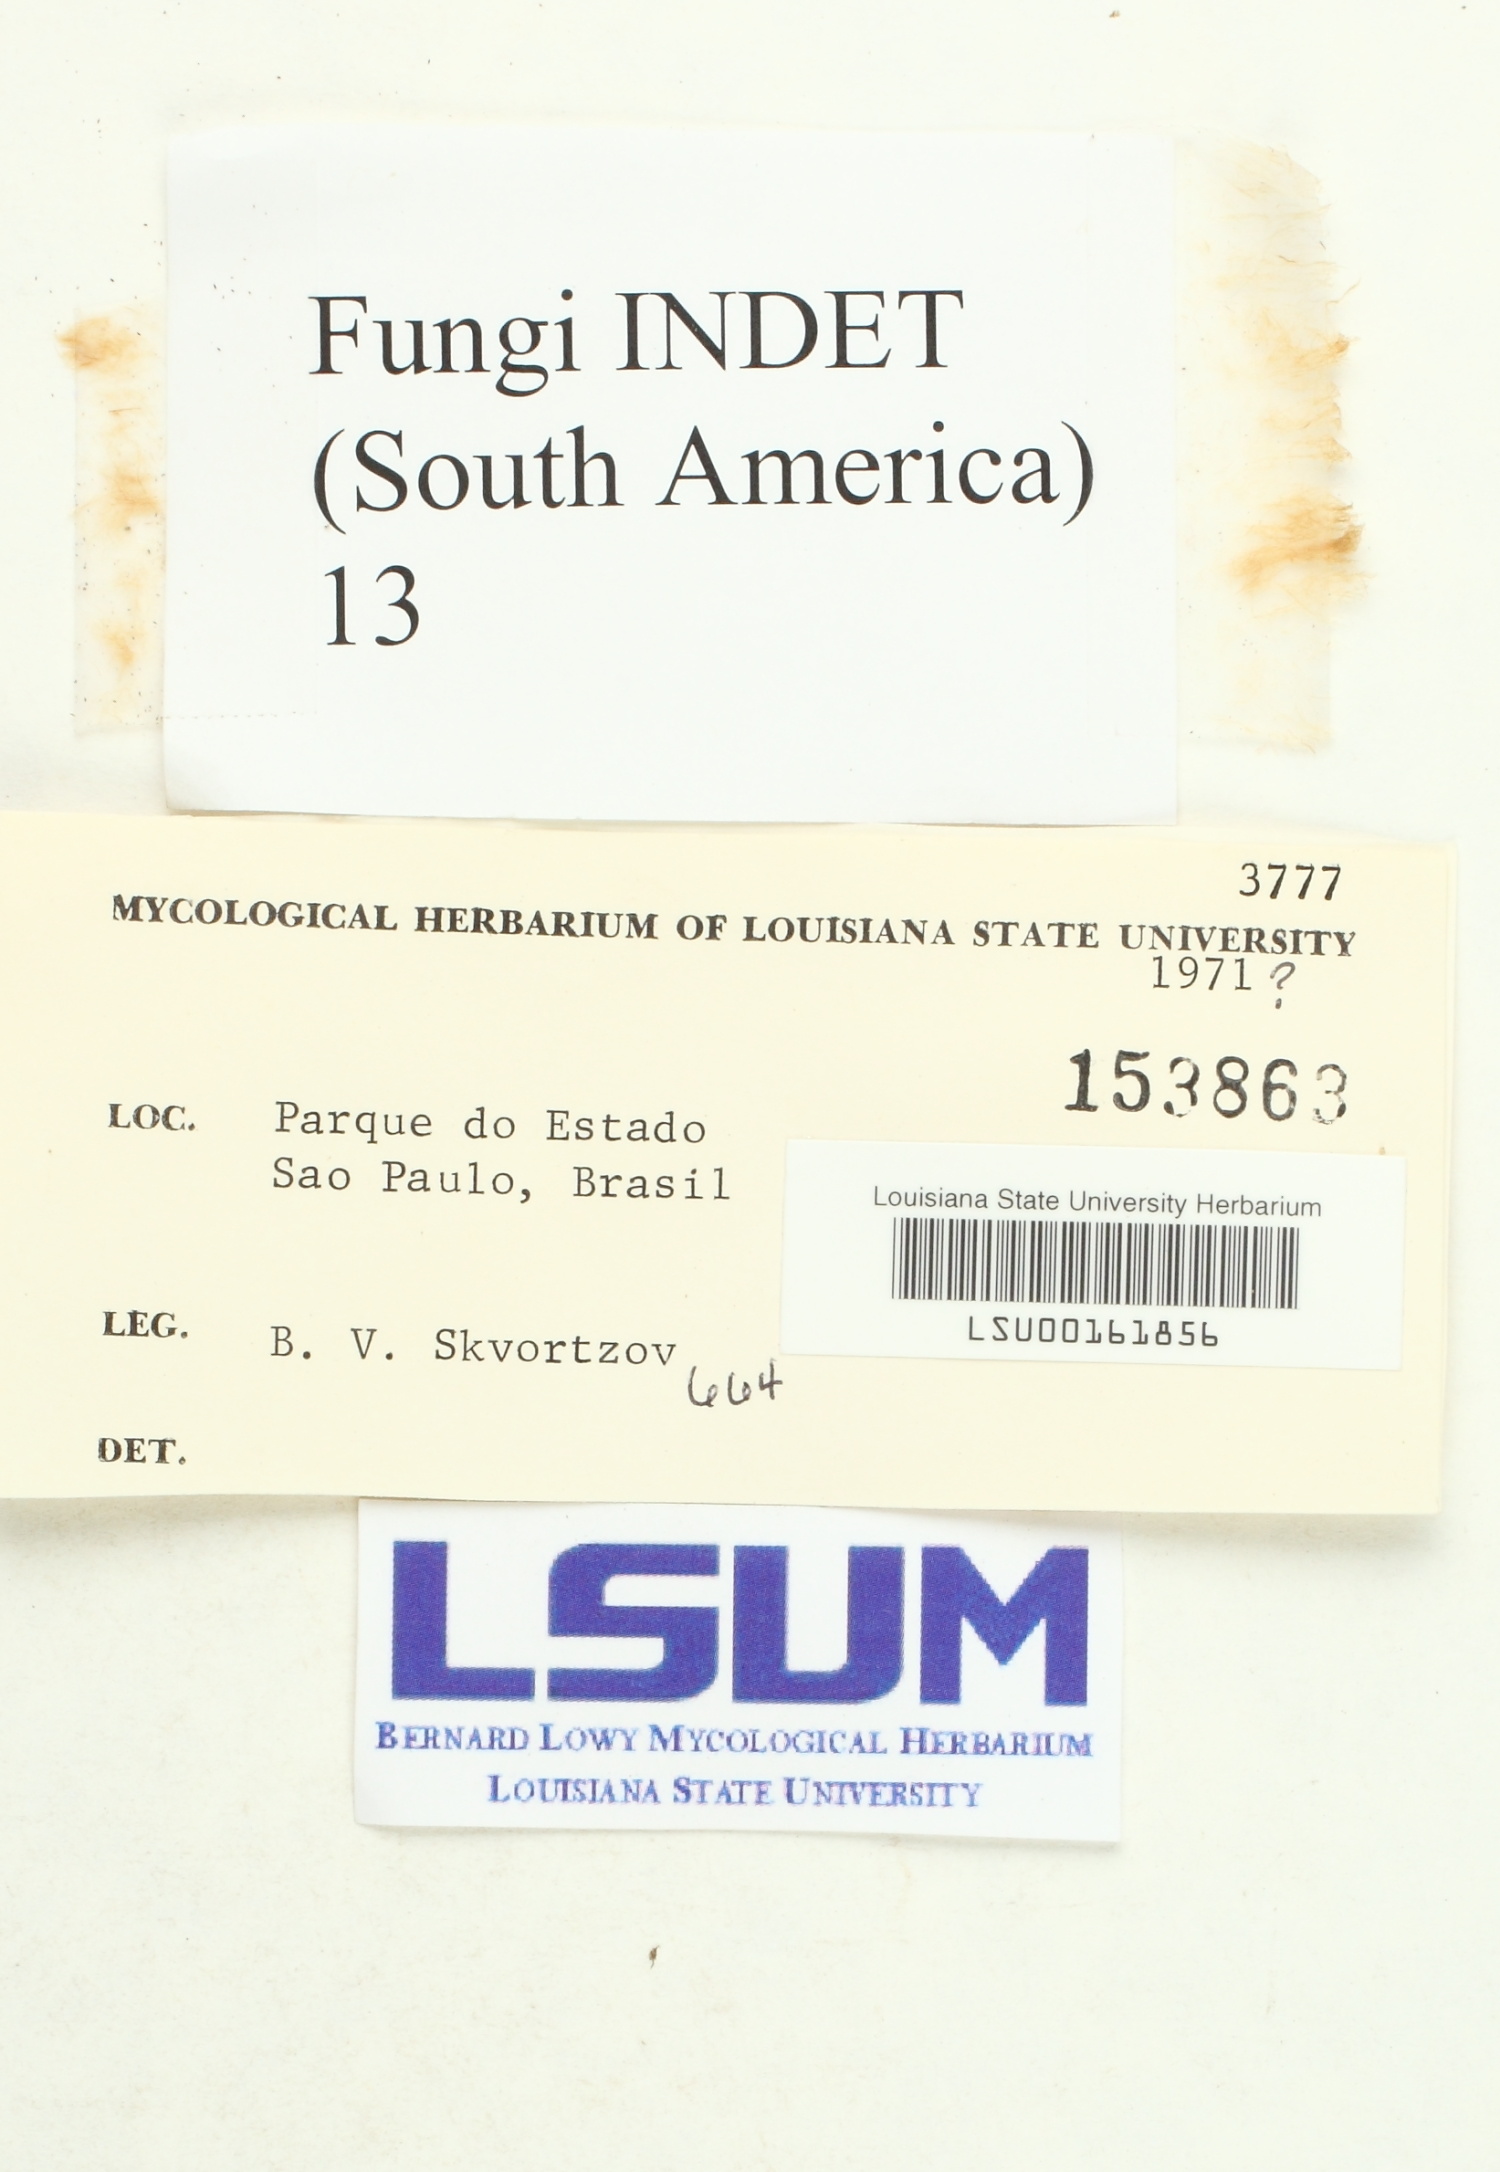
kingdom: Fungi
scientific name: Fungi
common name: Fungi
